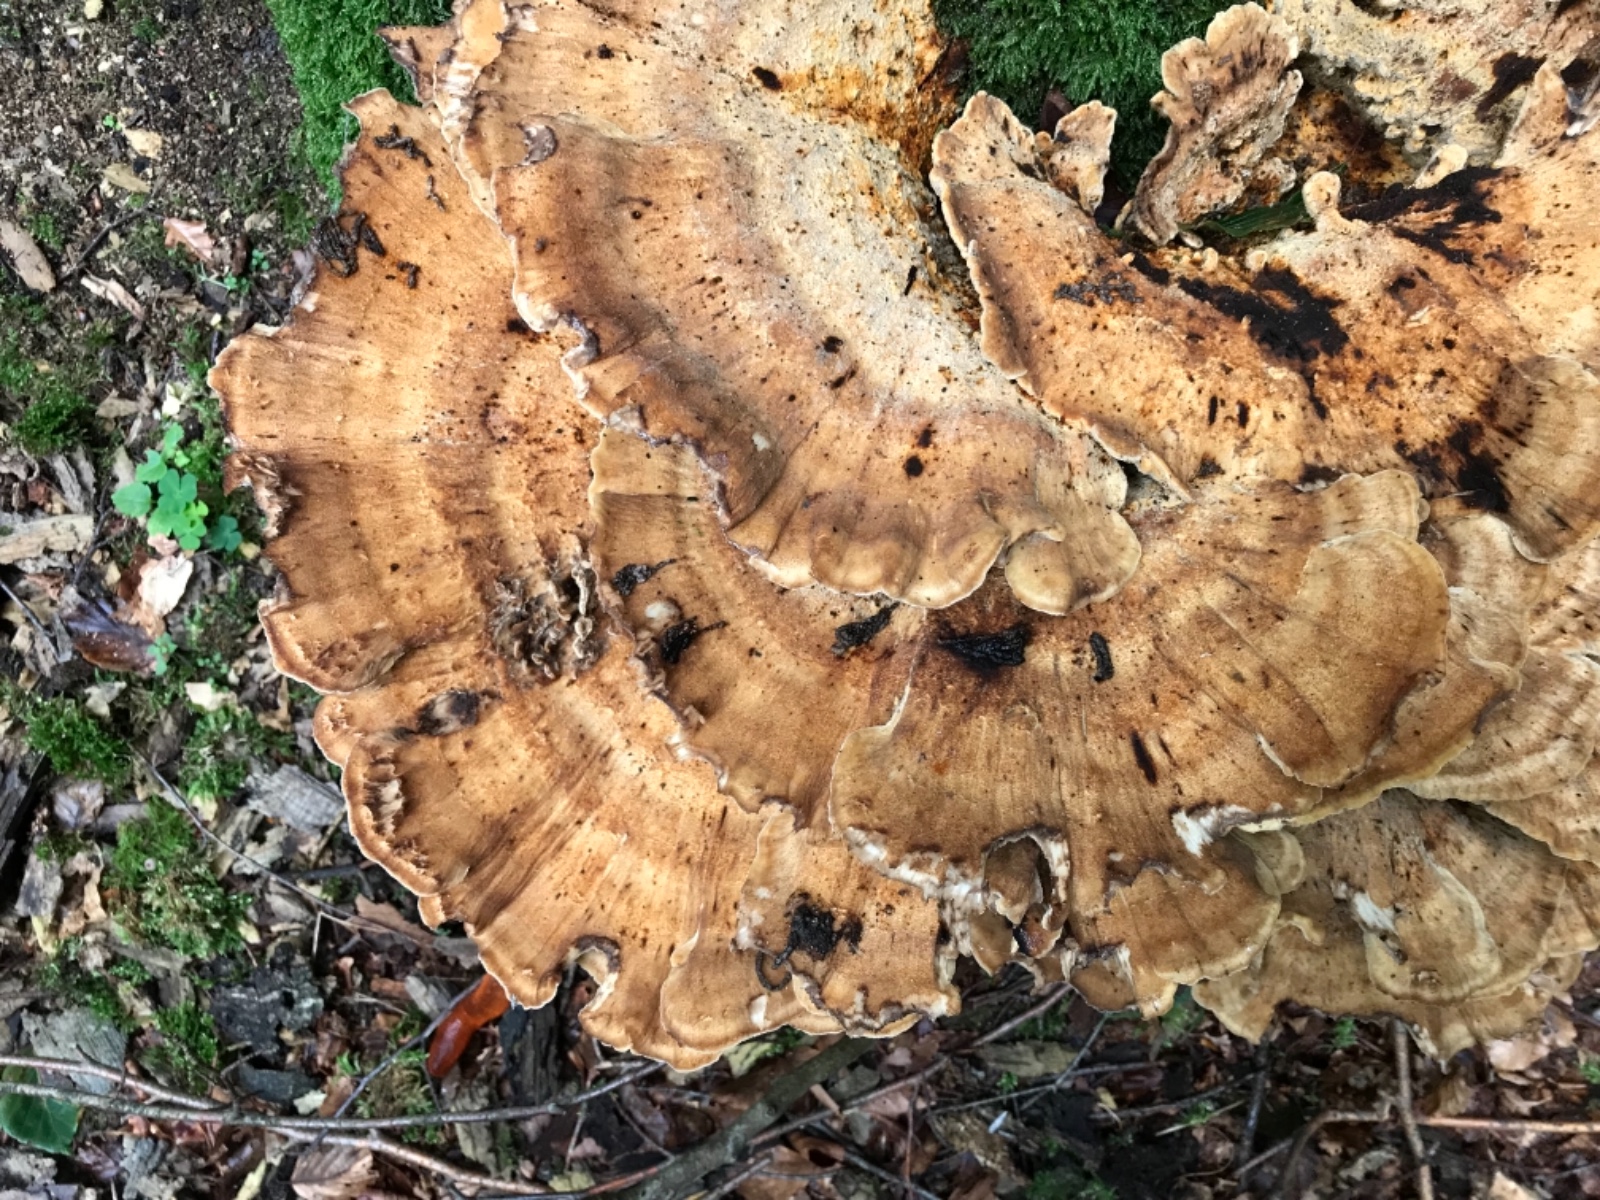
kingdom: Fungi
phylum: Basidiomycota
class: Agaricomycetes
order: Polyporales
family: Meripilaceae
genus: Meripilus
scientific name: Meripilus giganteus
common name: kæmpeporesvamp
